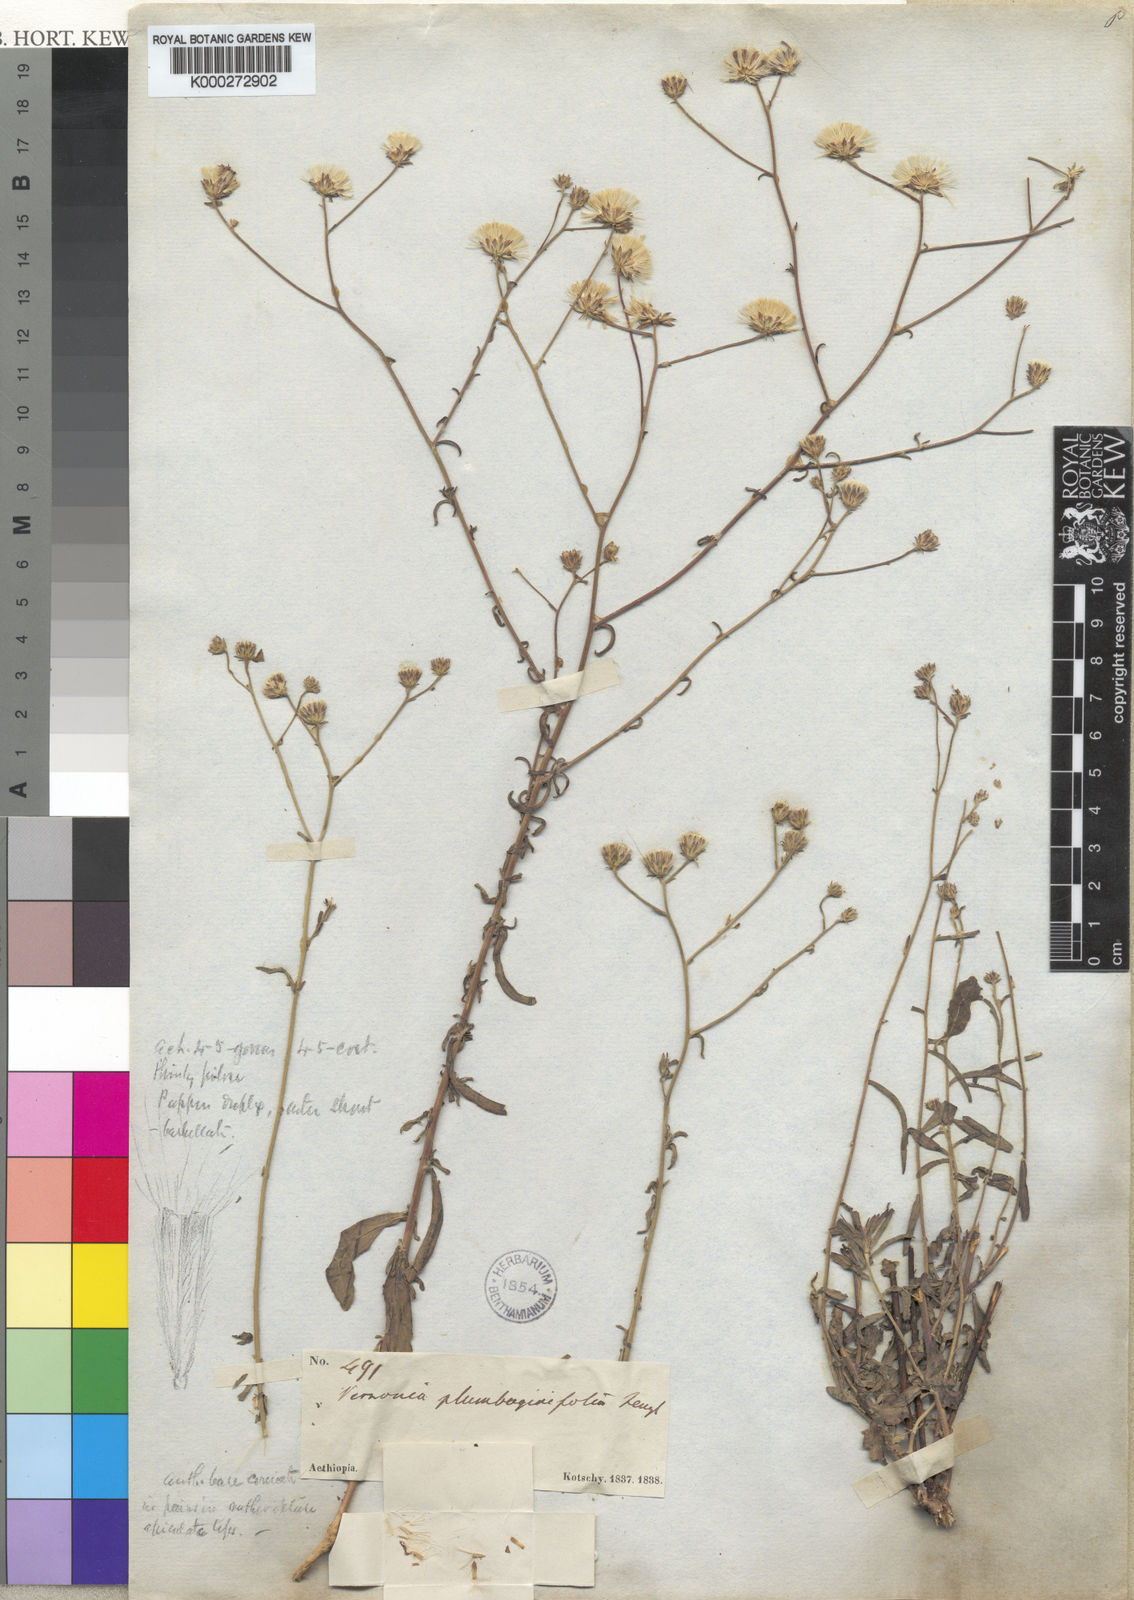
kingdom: Plantae
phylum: Tracheophyta
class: Magnoliopsida
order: Asterales
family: Asteraceae
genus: Vernonia
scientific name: Vernonia
